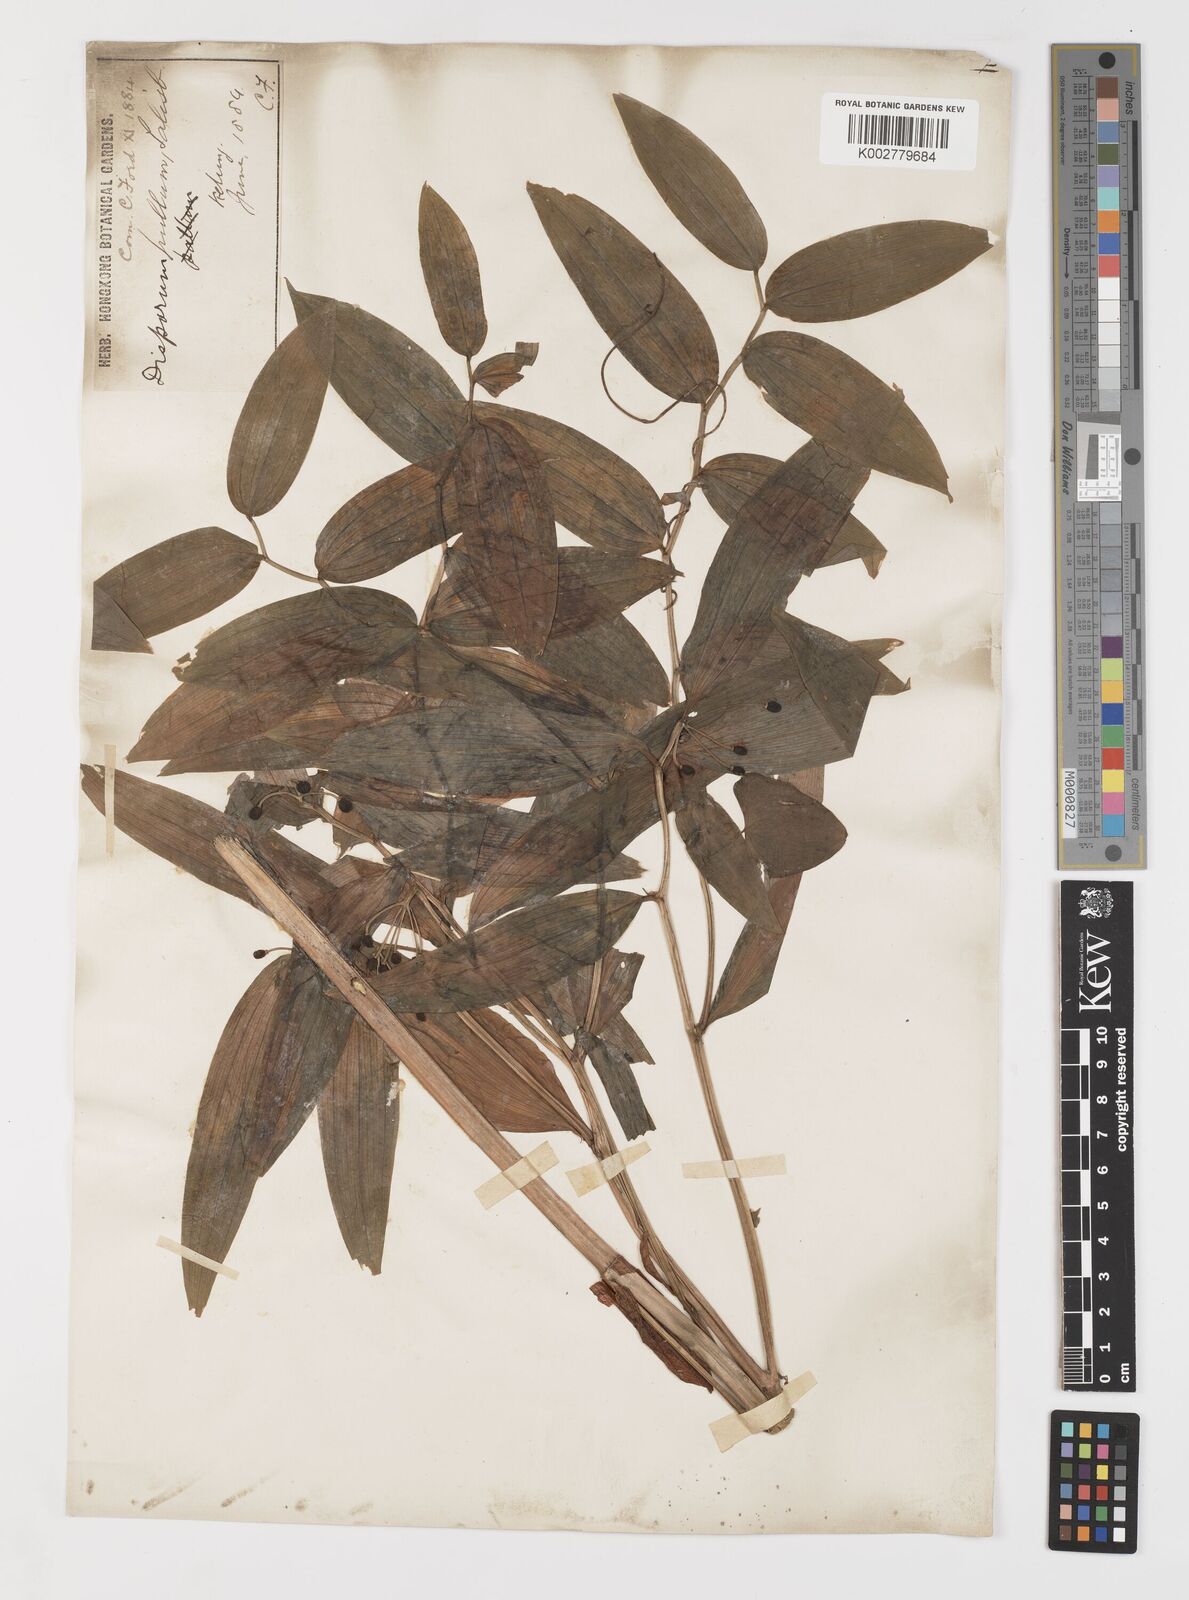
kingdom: Plantae
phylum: Tracheophyta
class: Liliopsida
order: Liliales
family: Colchicaceae
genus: Disporum
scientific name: Disporum cantoniense
